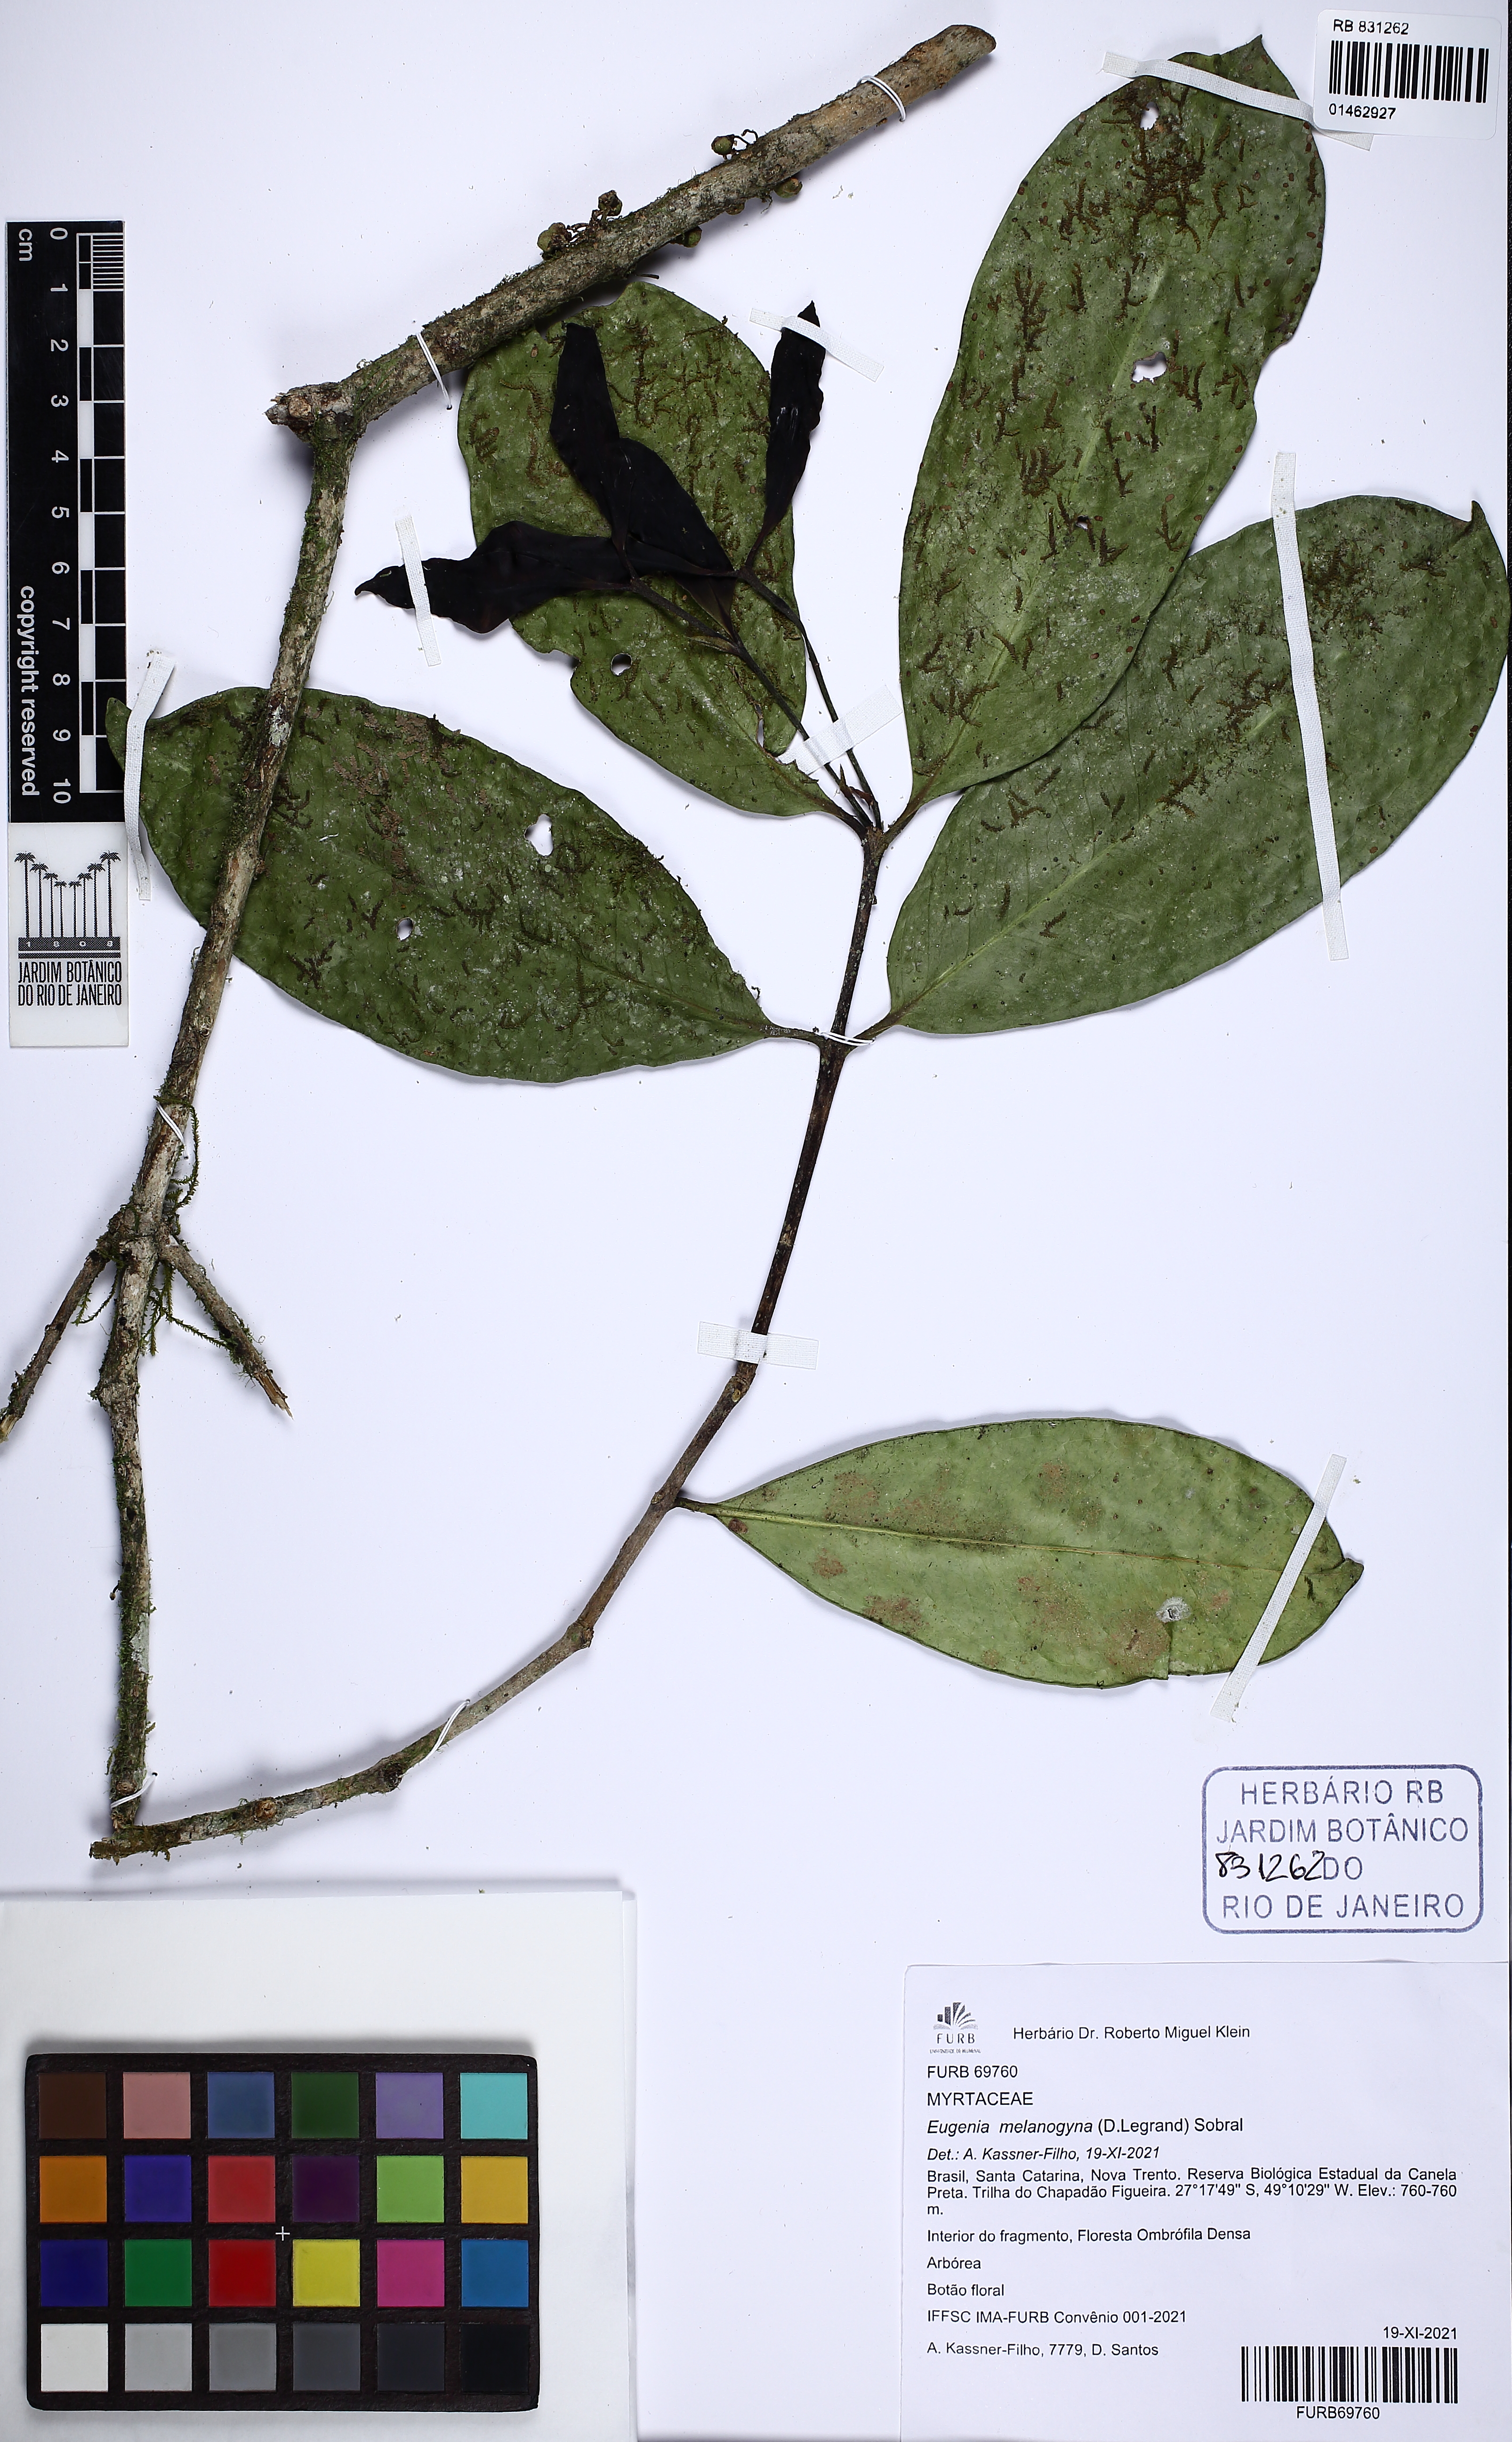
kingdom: Plantae
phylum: Tracheophyta
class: Magnoliopsida
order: Myrtales
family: Myrtaceae
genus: Eugenia
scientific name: Eugenia melanogyna
